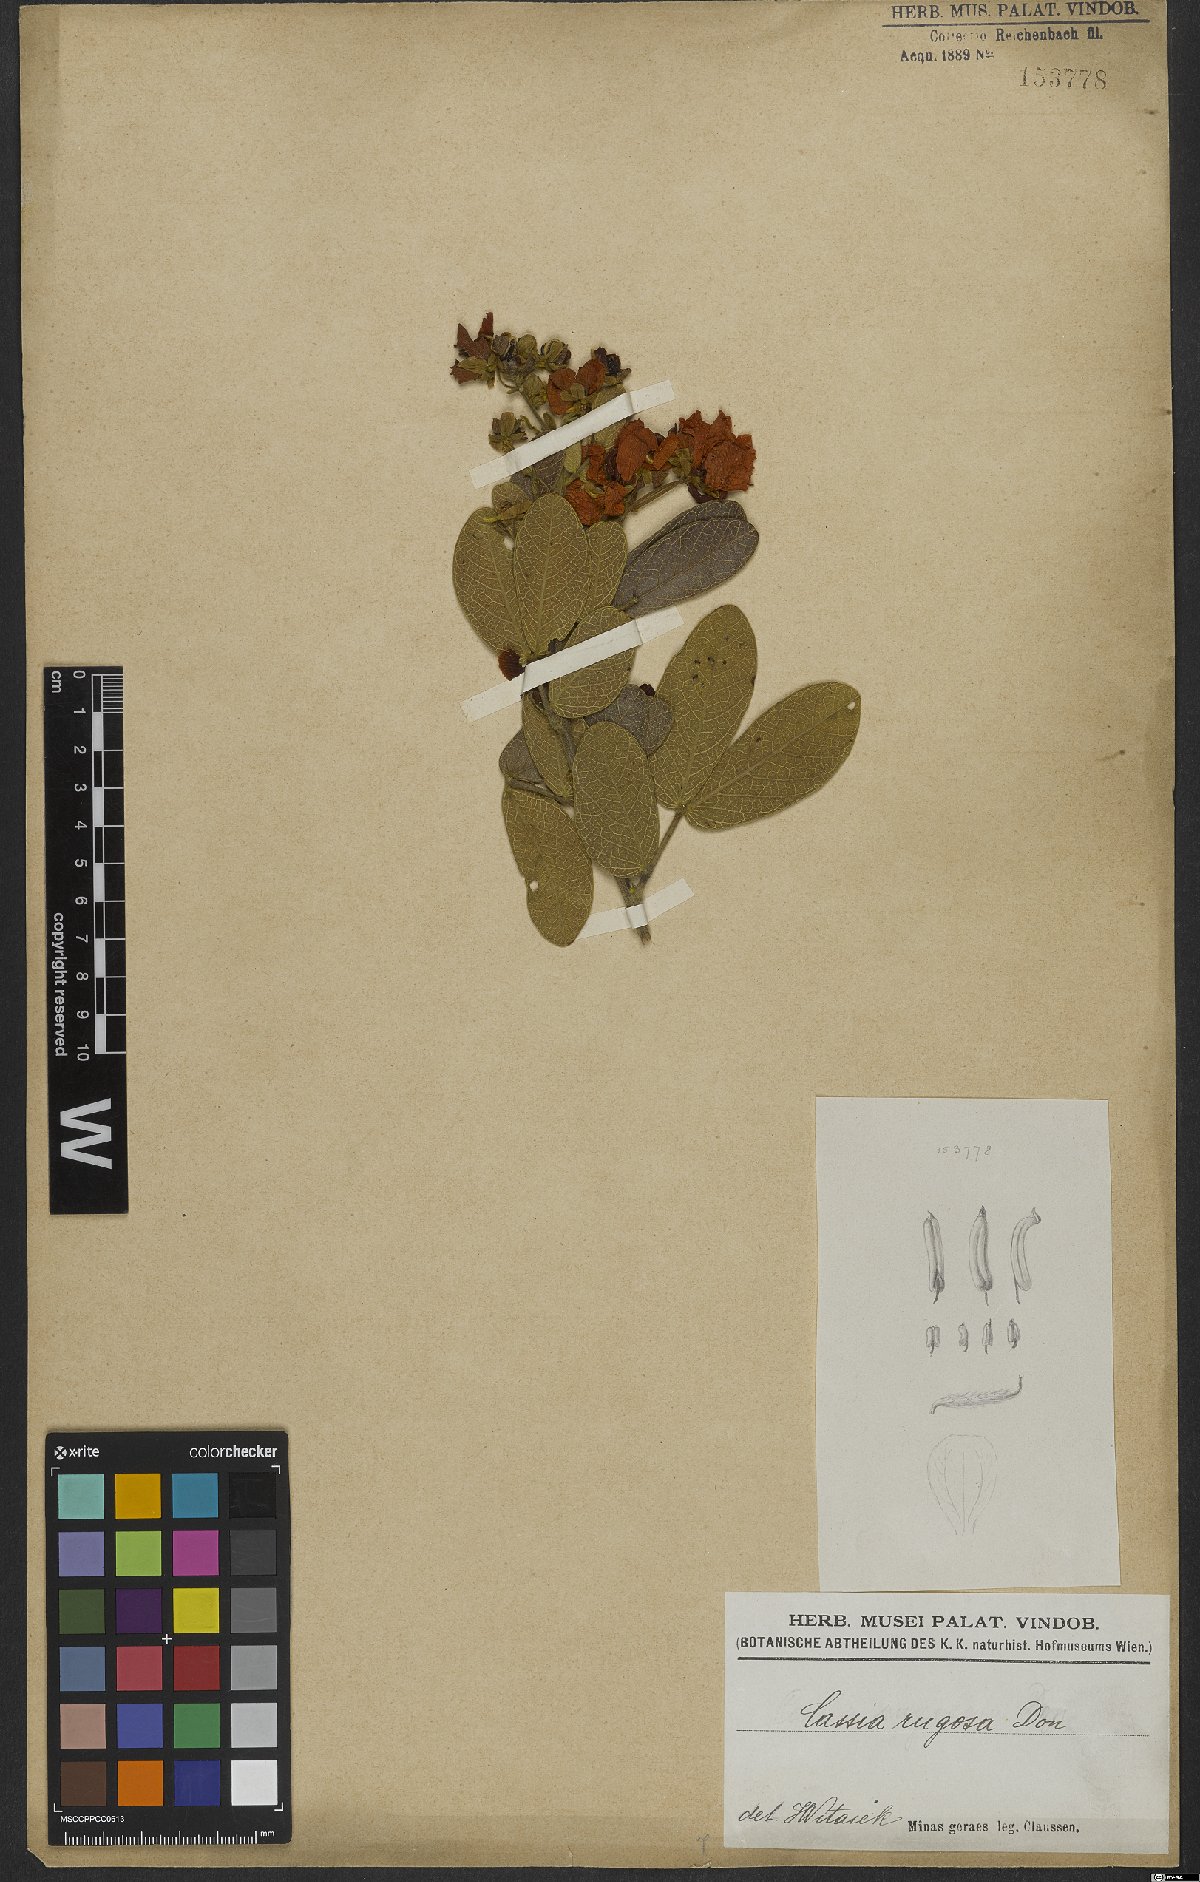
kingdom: Plantae
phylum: Tracheophyta
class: Magnoliopsida
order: Fabales
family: Fabaceae
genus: Senna
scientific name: Senna rugosa
